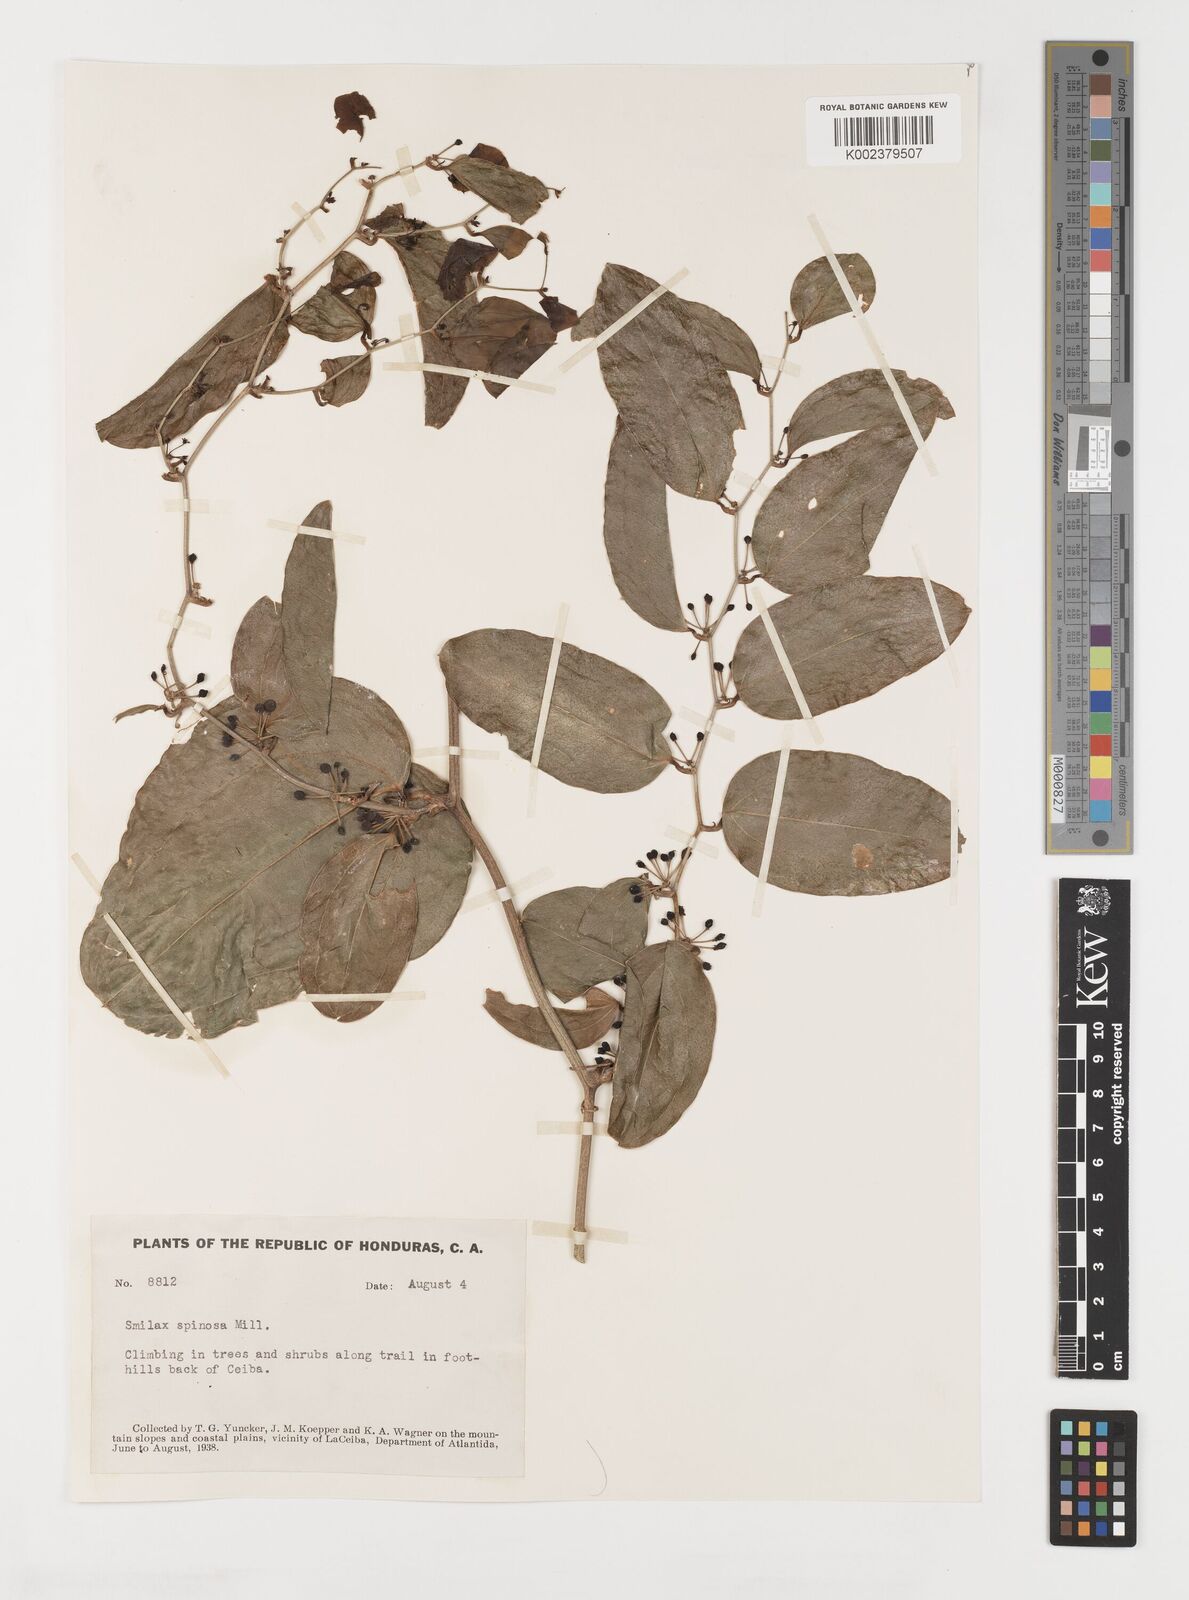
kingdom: Plantae
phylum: Tracheophyta
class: Liliopsida
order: Liliales
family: Smilacaceae
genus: Smilax
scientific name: Smilax spinosa
